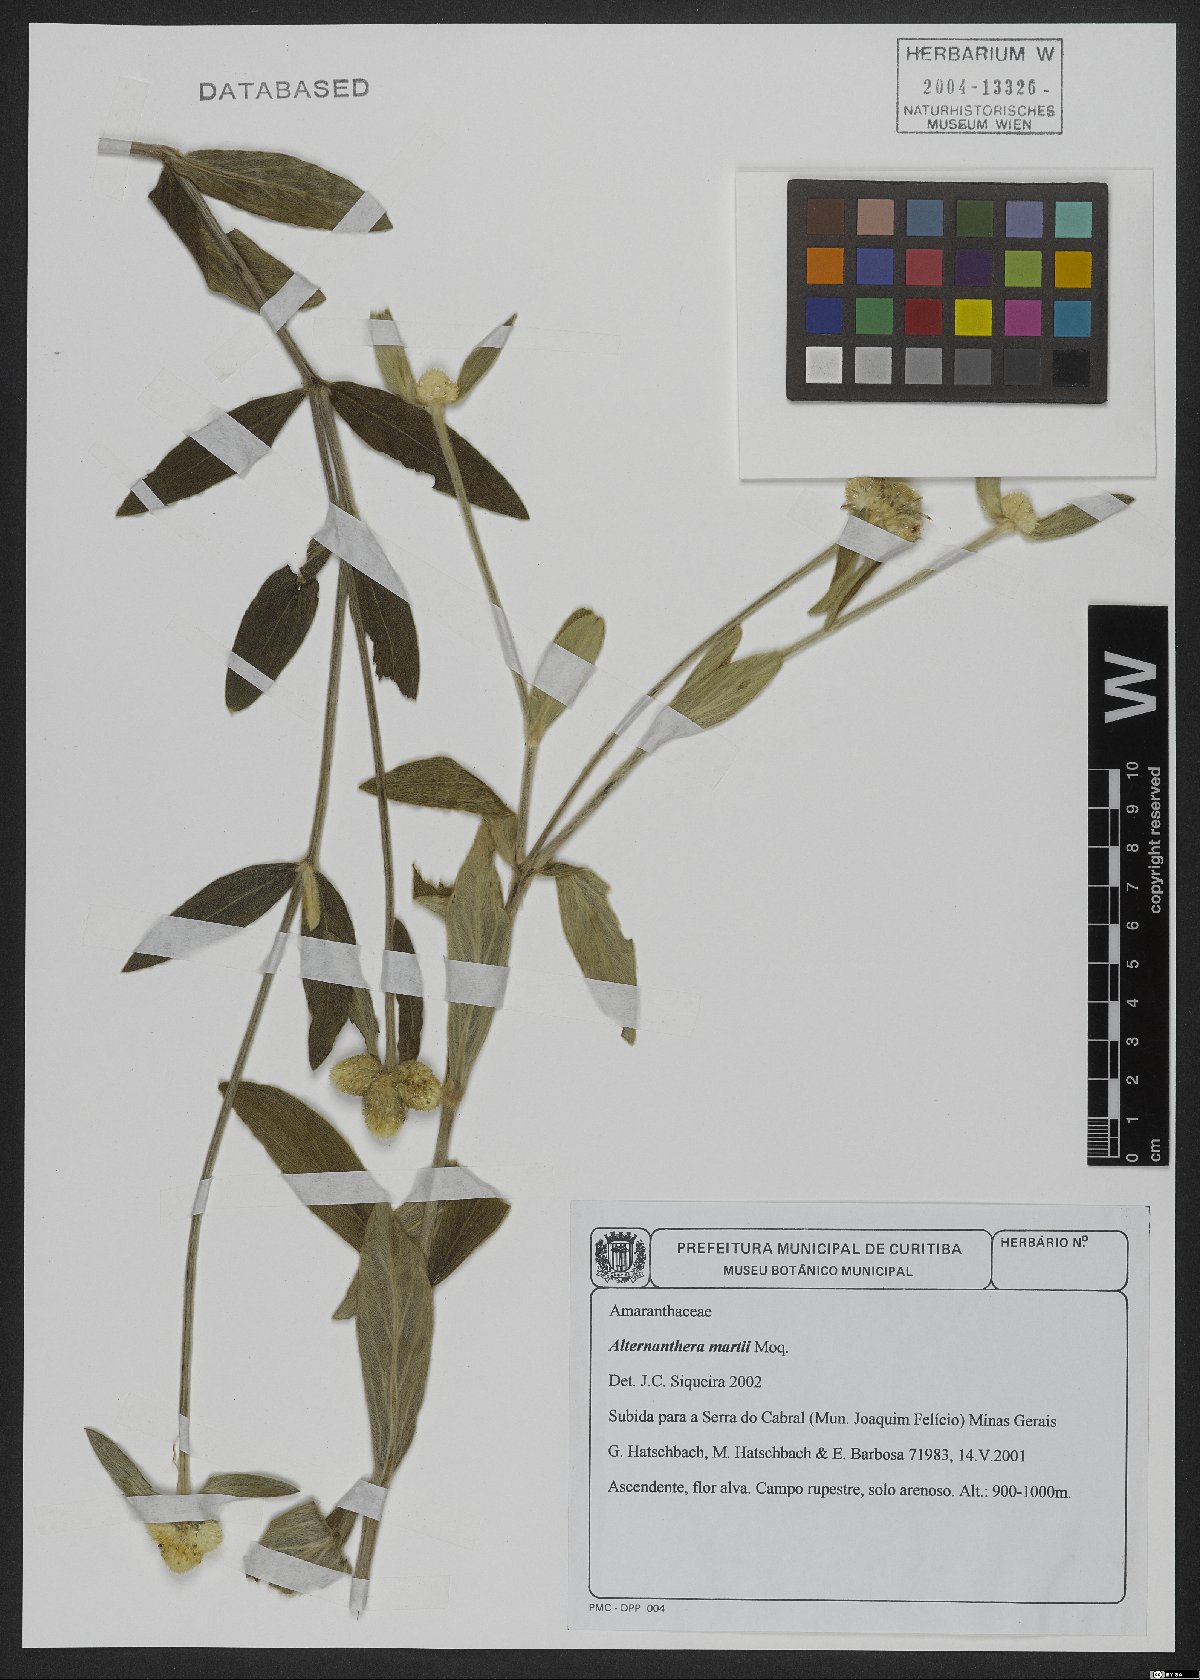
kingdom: Plantae
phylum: Tracheophyta
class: Magnoliopsida
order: Caryophyllales
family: Amaranthaceae
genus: Alternanthera
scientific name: Alternanthera martii
